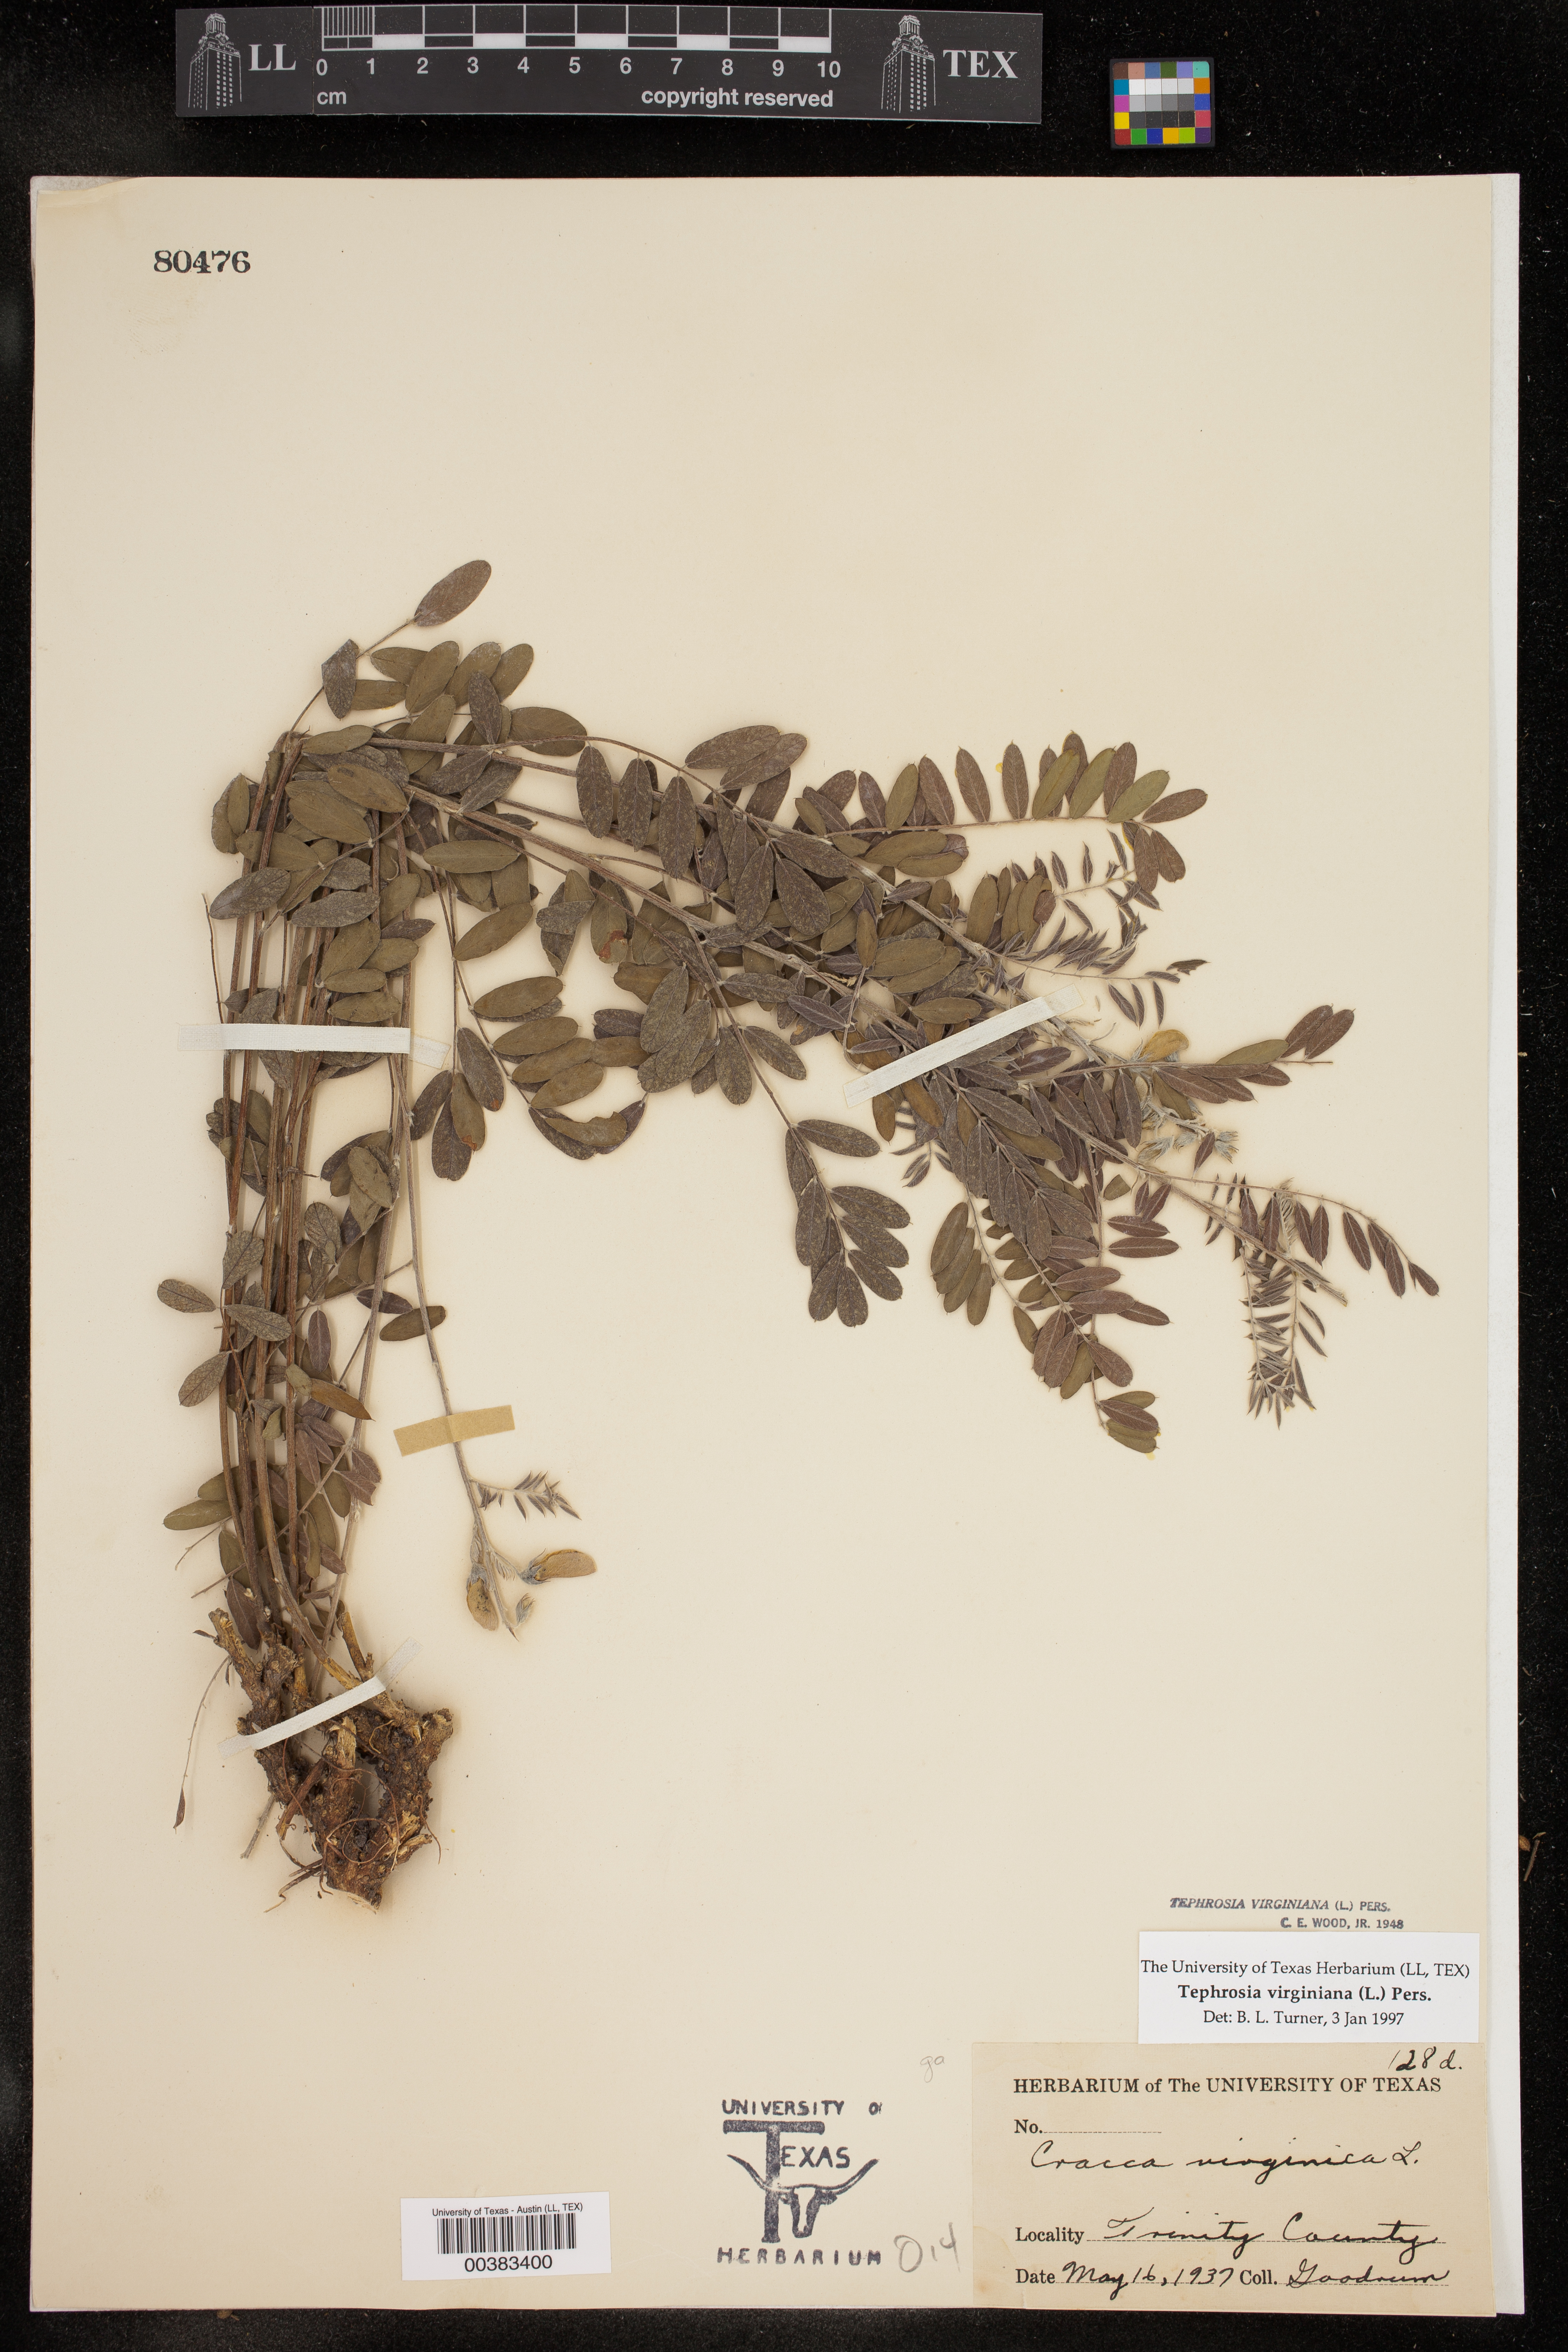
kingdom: Plantae
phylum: Tracheophyta
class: Magnoliopsida
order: Fabales
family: Fabaceae
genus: Tephrosia
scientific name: Tephrosia virginiana
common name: Rabbit-pea
